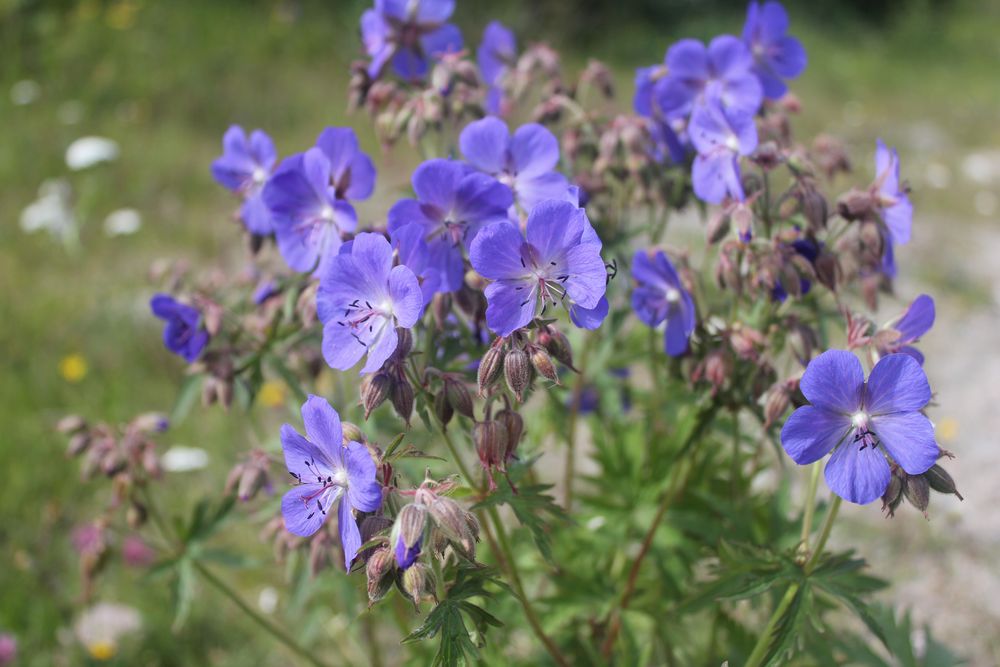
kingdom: Plantae
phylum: Tracheophyta
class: Magnoliopsida
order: Geraniales
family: Geraniaceae
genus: Geranium
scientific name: Geranium pratense
